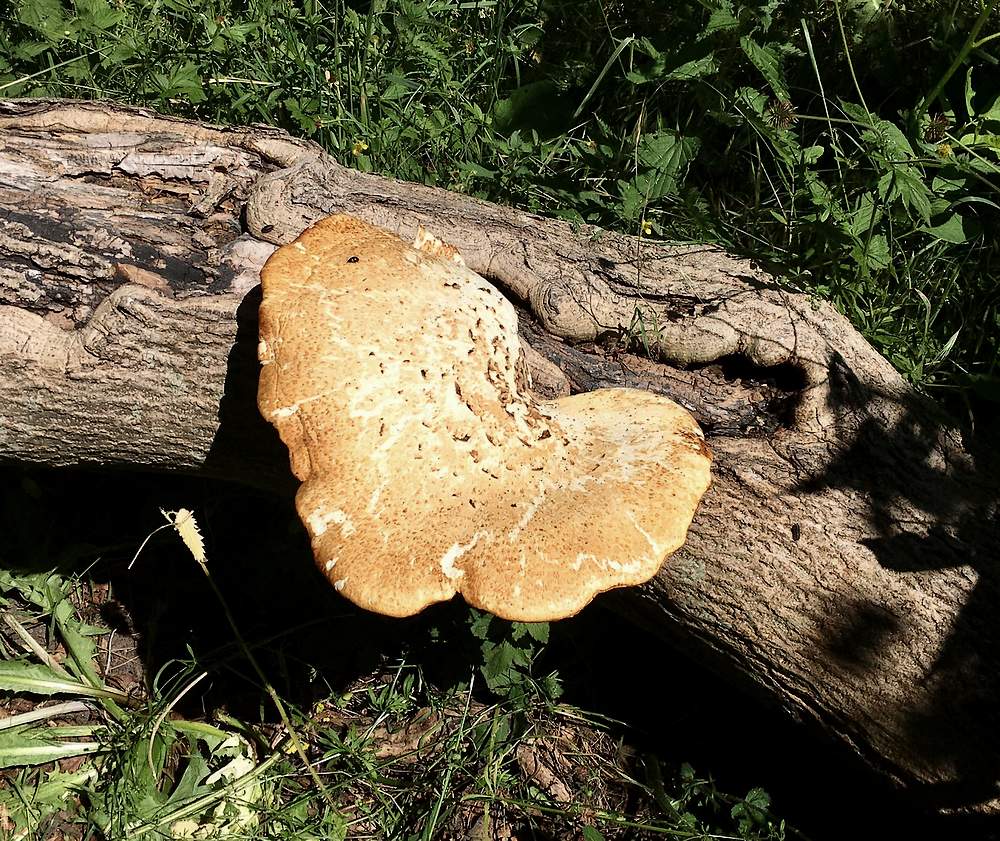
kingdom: Fungi
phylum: Basidiomycota
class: Agaricomycetes
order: Polyporales
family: Polyporaceae
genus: Cerioporus
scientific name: Cerioporus squamosus
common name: skællet stilkporesvamp
